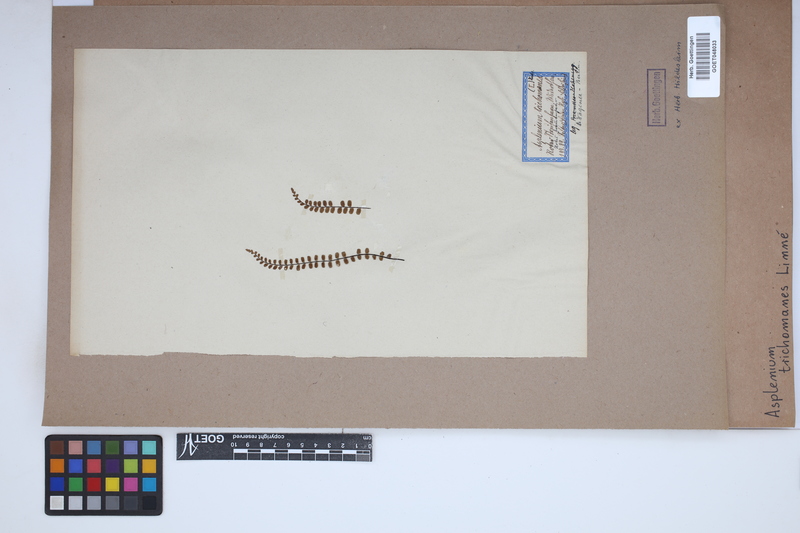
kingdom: Plantae
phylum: Tracheophyta
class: Polypodiopsida
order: Polypodiales
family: Aspleniaceae
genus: Asplenium
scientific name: Asplenium trichomanes
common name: Maidenhair spleenwort
